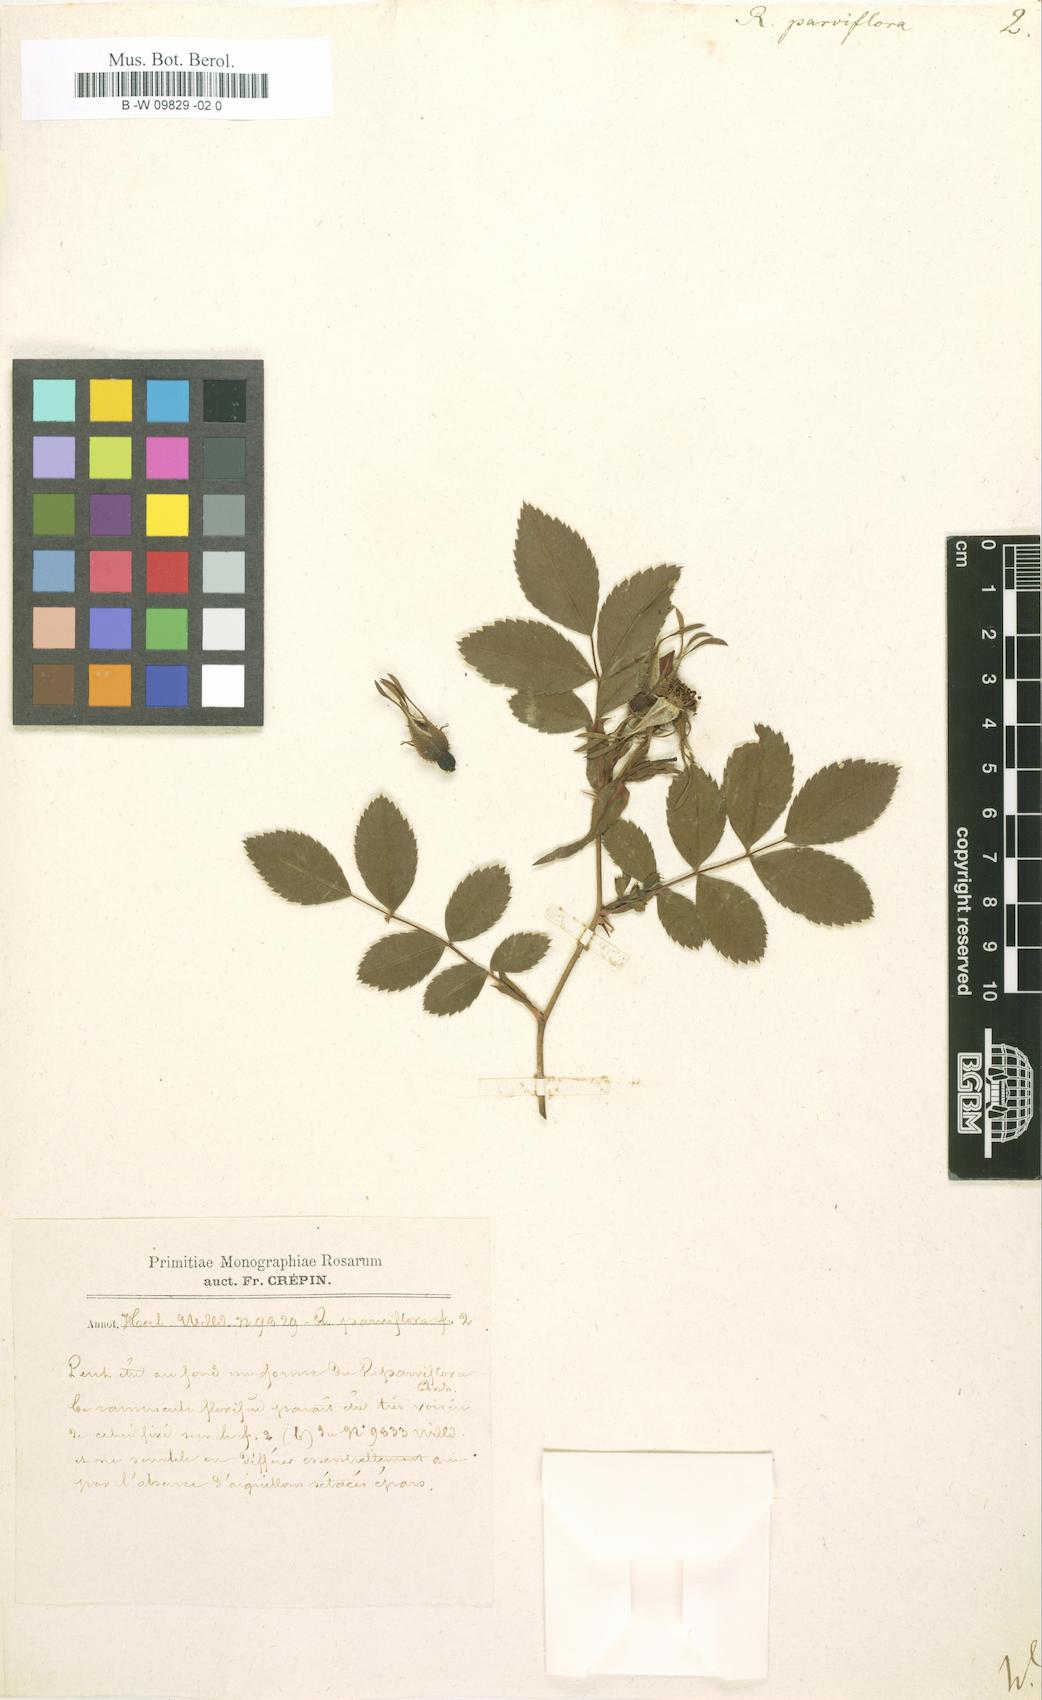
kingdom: Plantae
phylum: Tracheophyta
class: Magnoliopsida
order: Rosales
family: Rosaceae
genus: Rosa
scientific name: Rosa carolina
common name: Pasture rose
